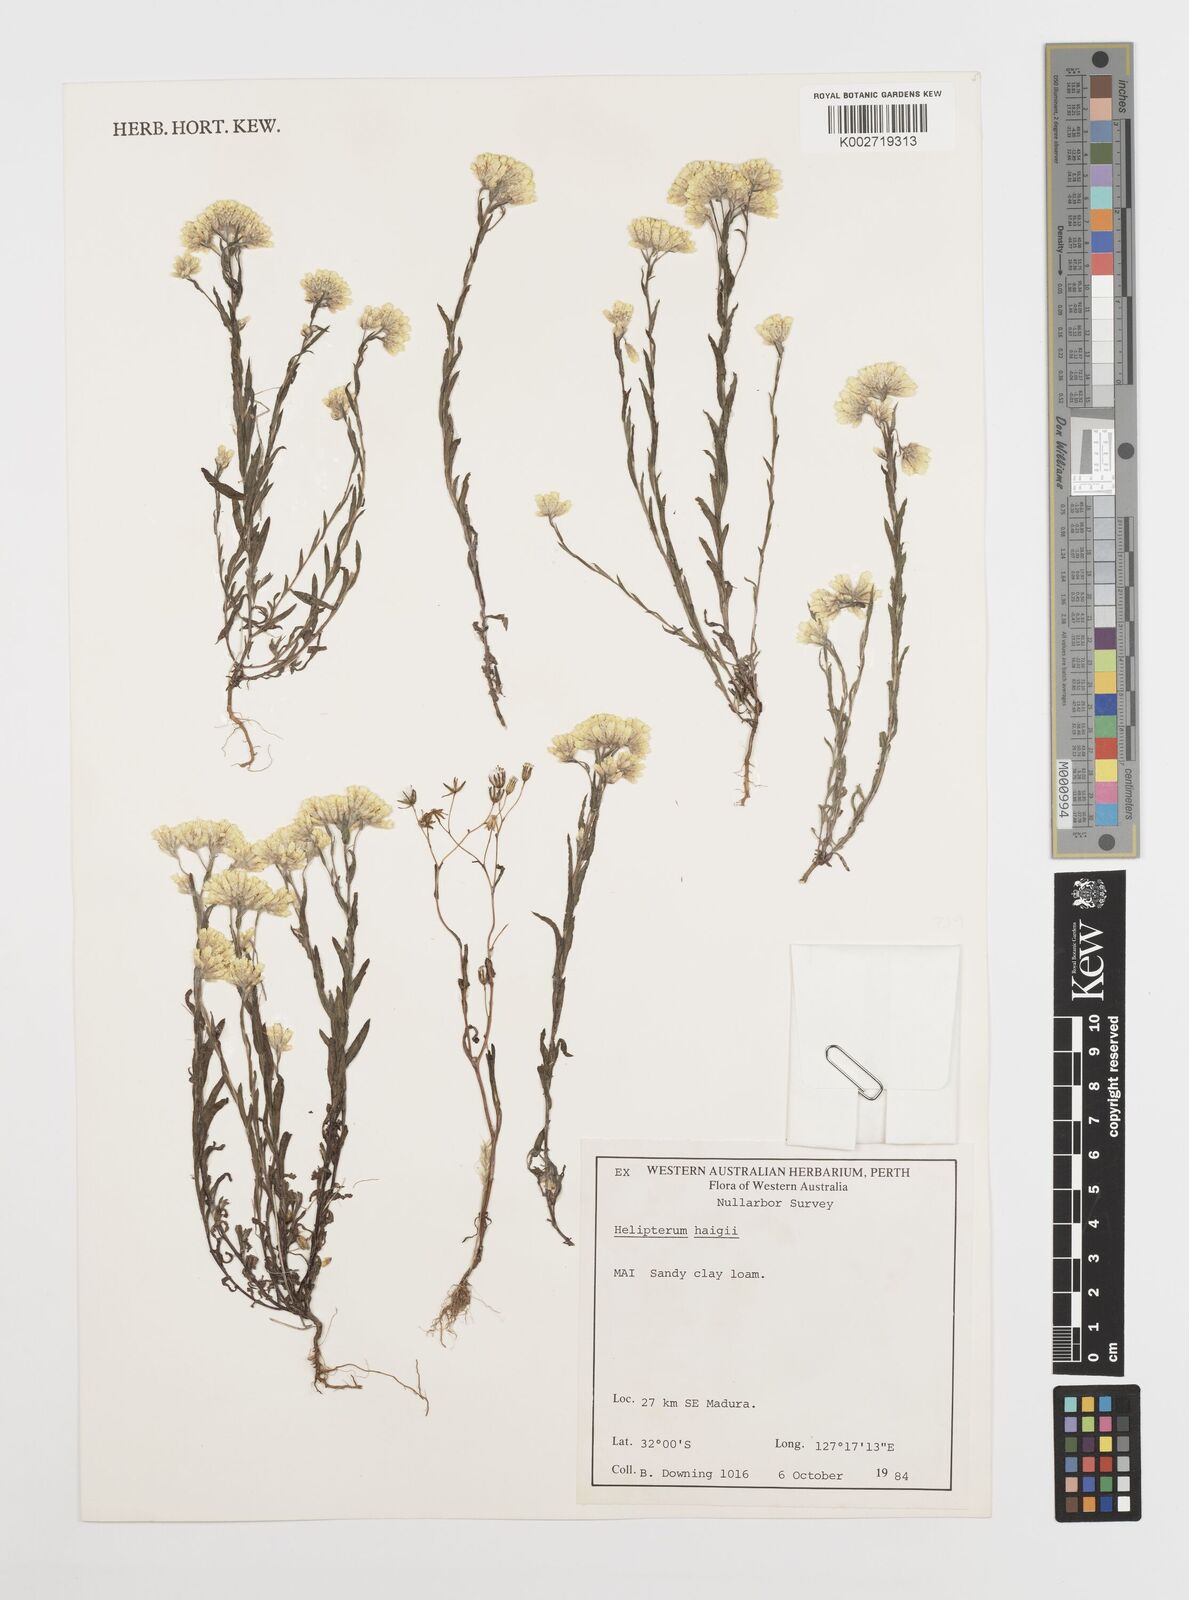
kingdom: Plantae
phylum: Tracheophyta
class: Magnoliopsida
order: Asterales
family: Asteraceae
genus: Rhodanthe
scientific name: Rhodanthe haigii
